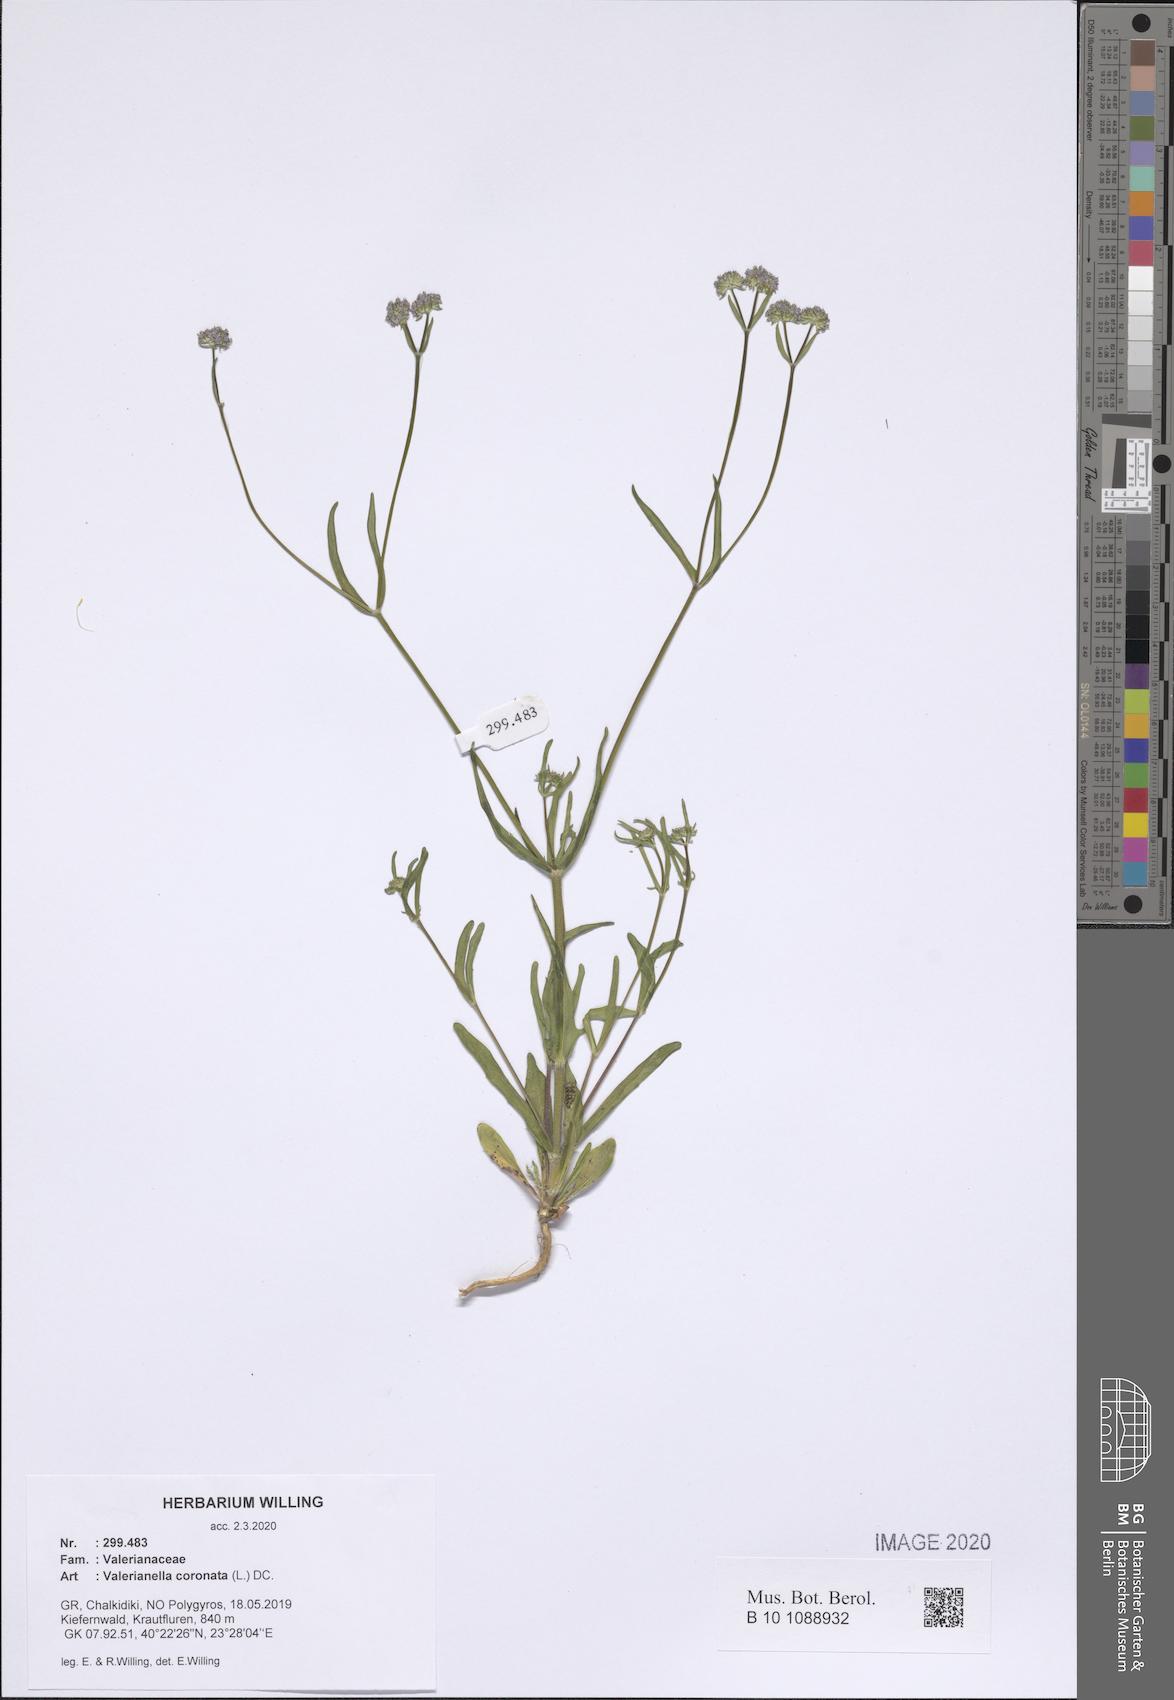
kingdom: Plantae
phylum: Tracheophyta
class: Magnoliopsida
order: Dipsacales
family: Caprifoliaceae
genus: Valerianella
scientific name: Valerianella coronata
